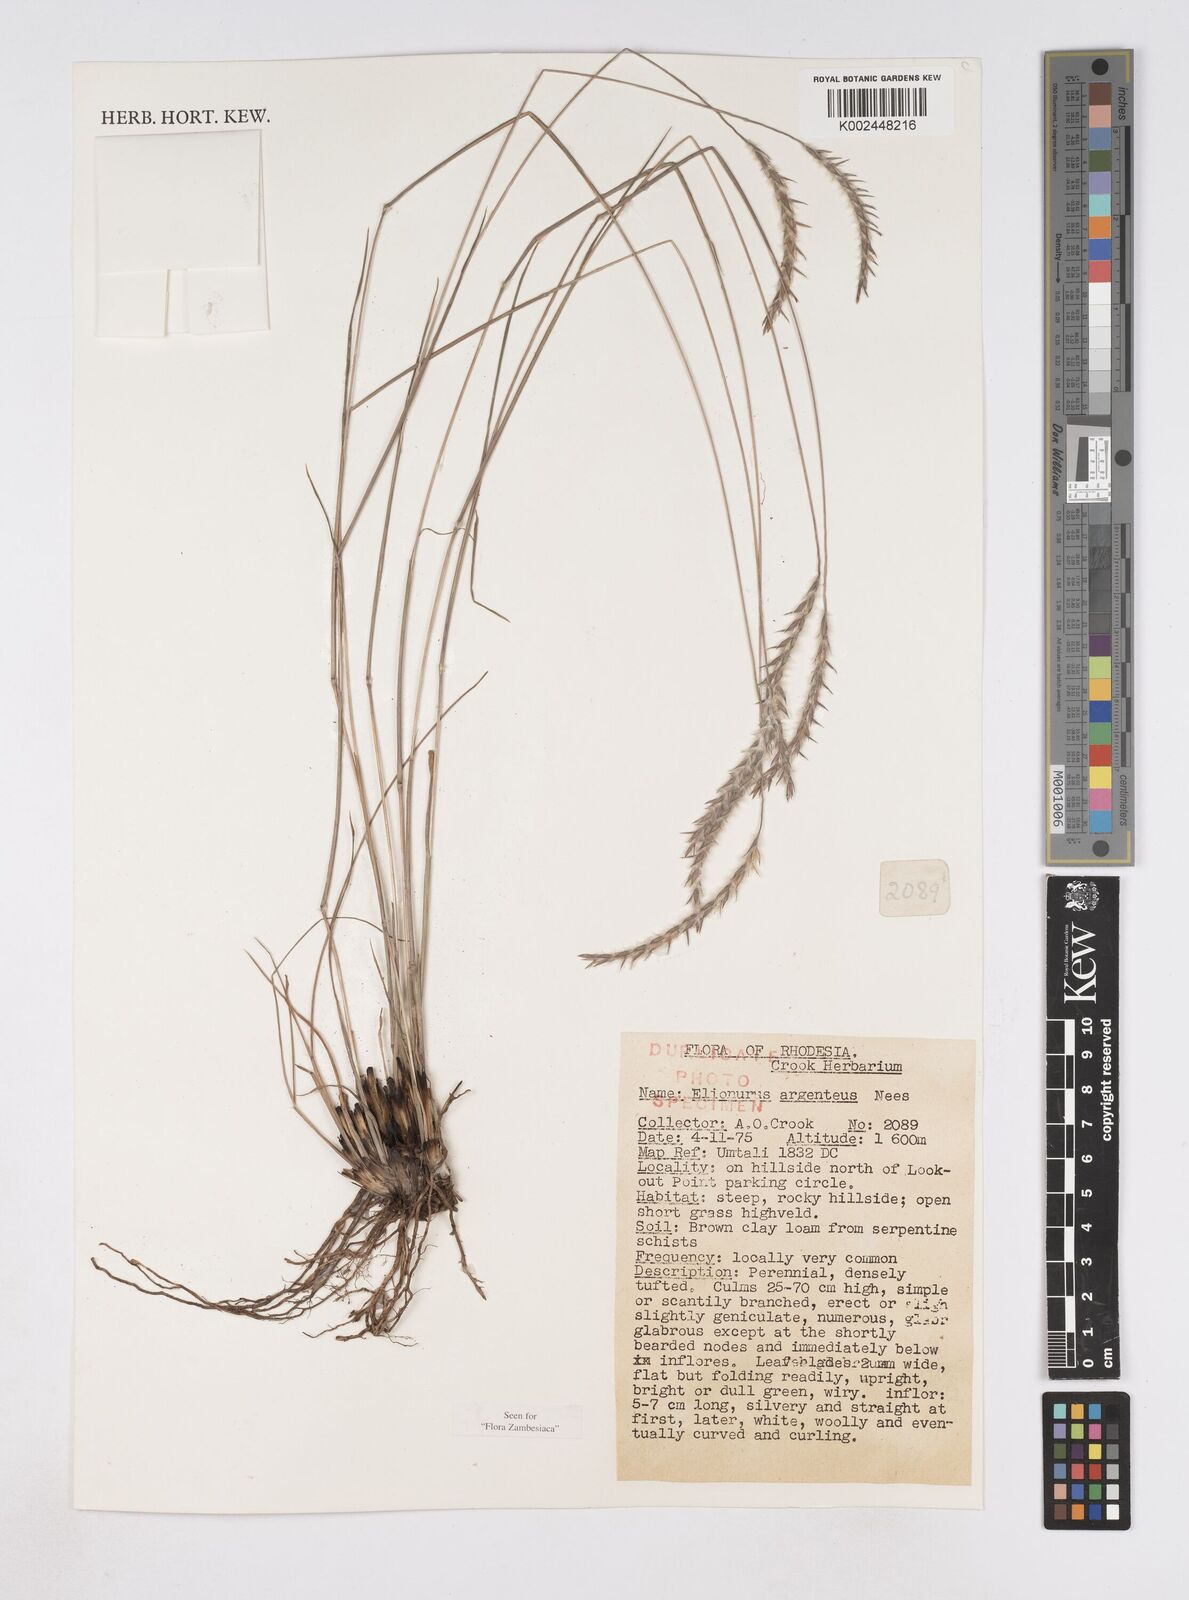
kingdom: Plantae
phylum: Tracheophyta
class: Liliopsida
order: Poales
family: Poaceae
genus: Elionurus
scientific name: Elionurus muticus
